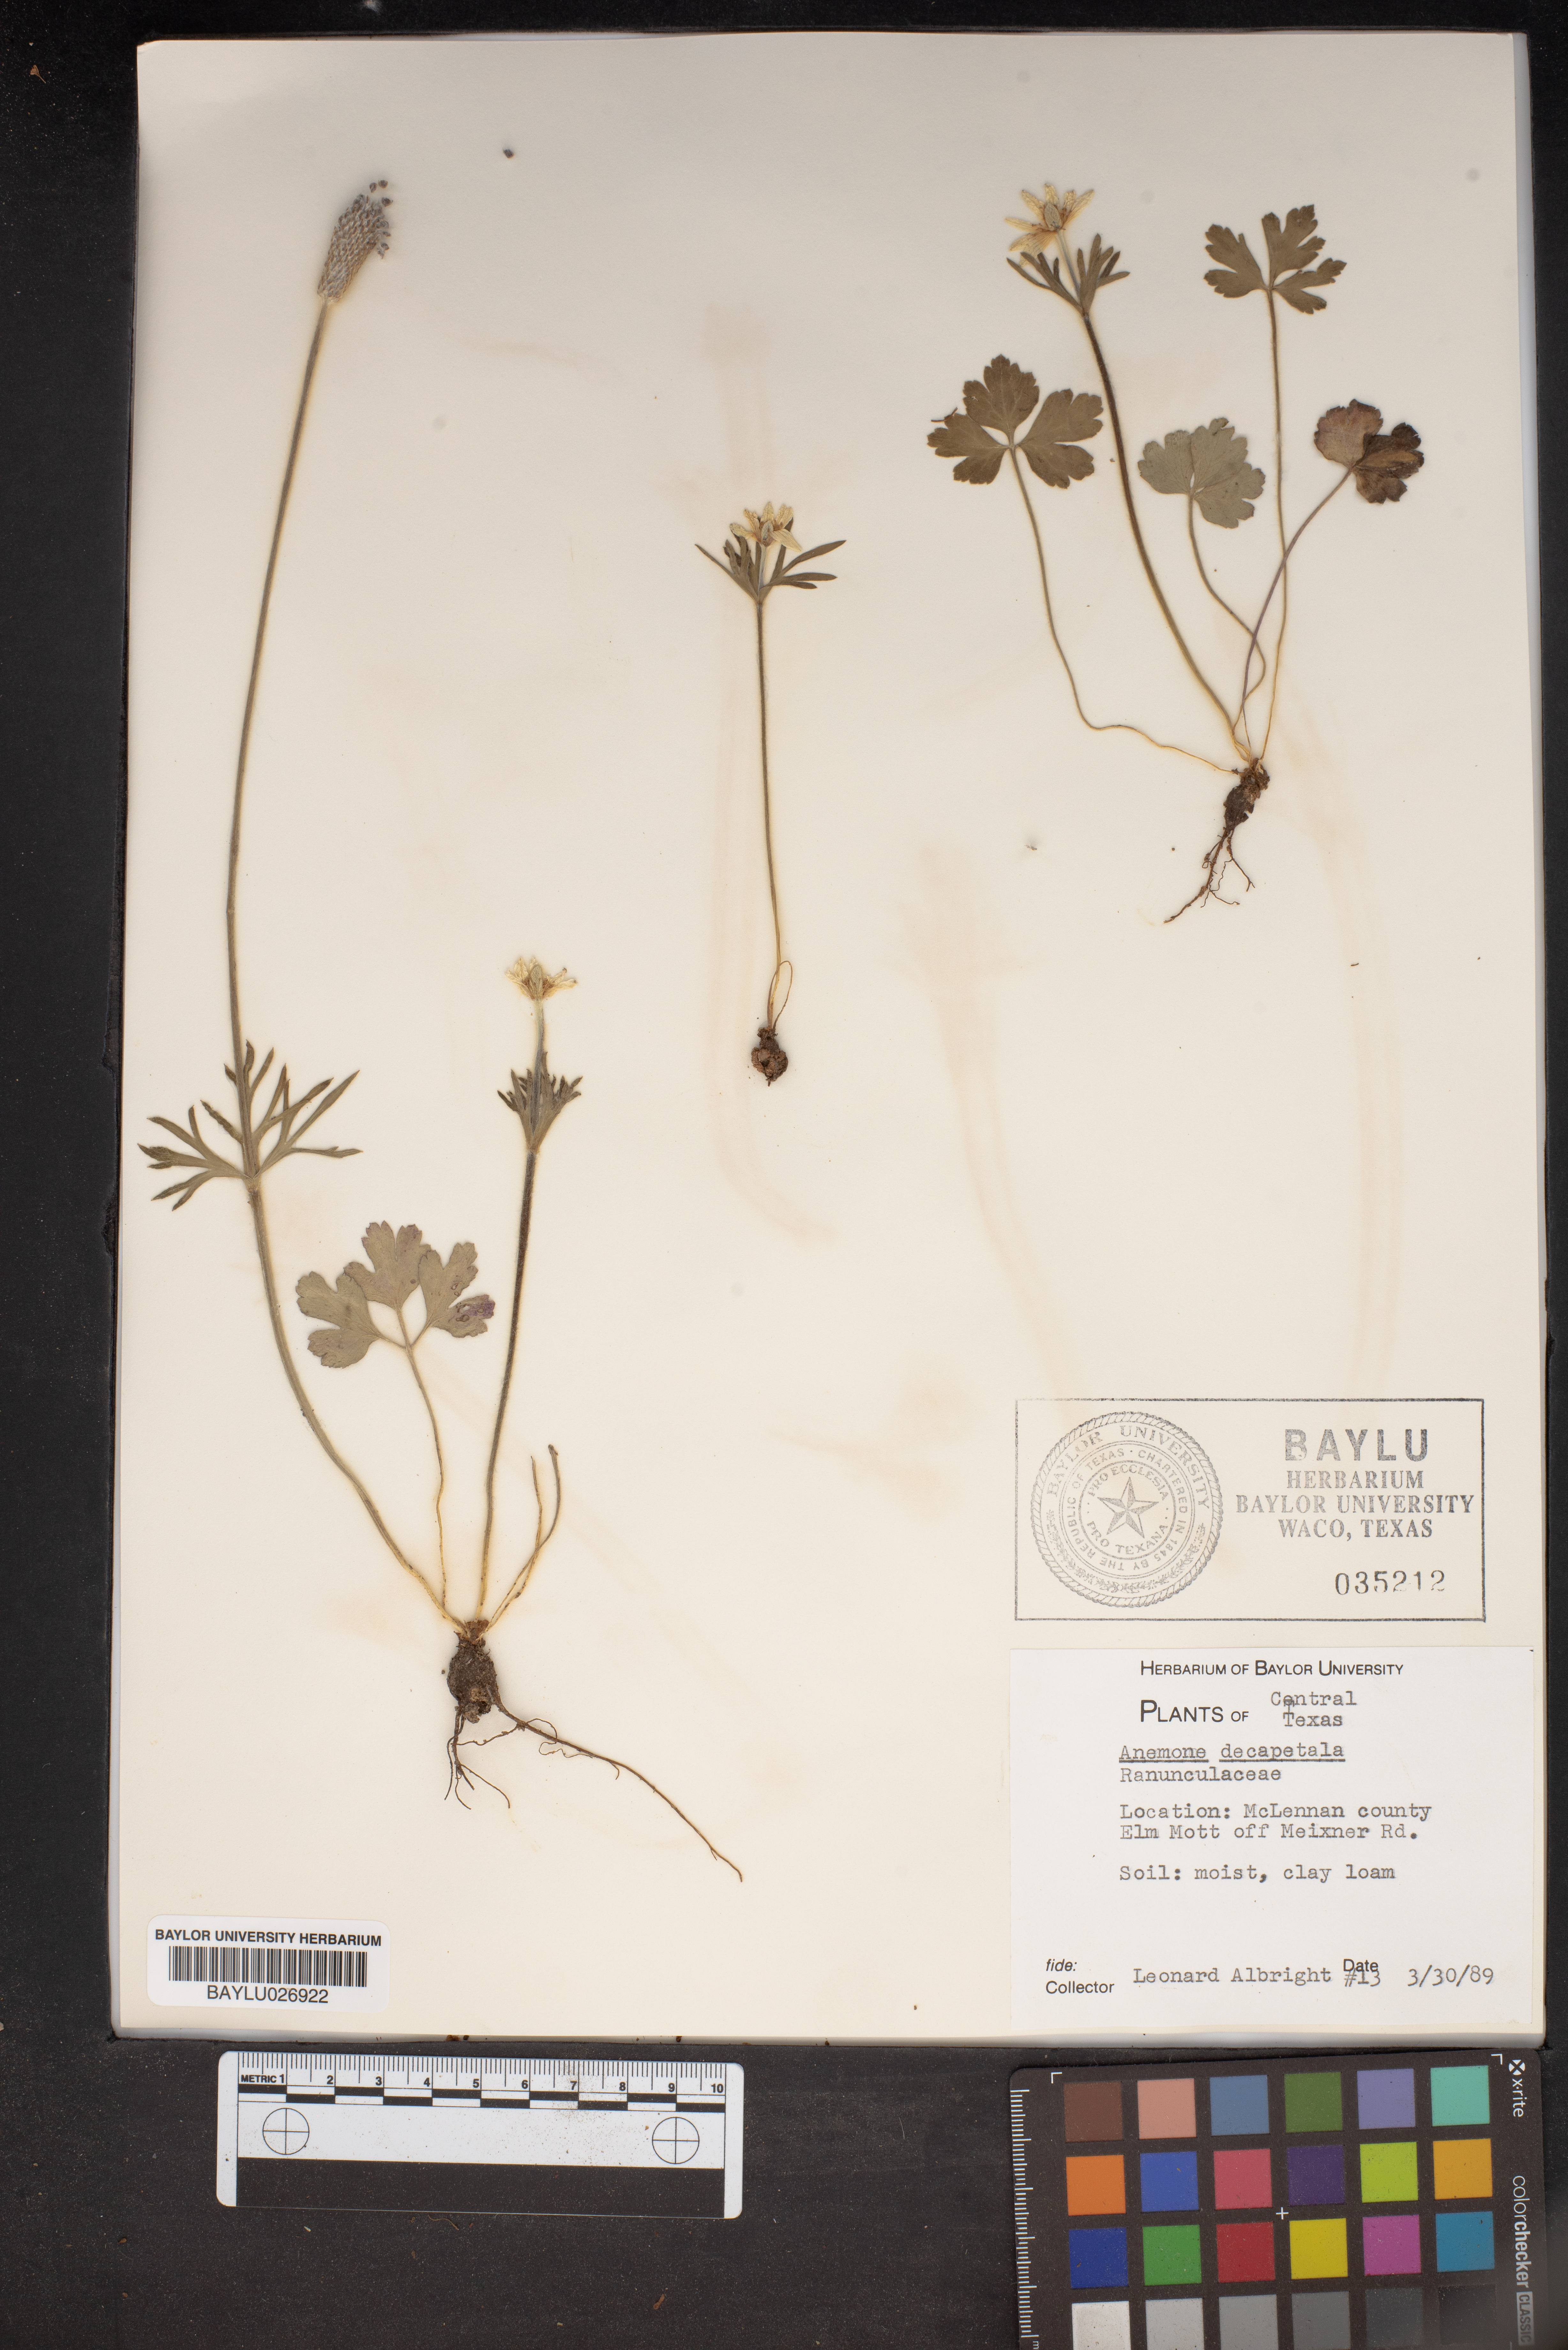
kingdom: Plantae
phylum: Tracheophyta
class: Magnoliopsida
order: Ranunculales
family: Ranunculaceae
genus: Anemone
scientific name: Anemone decapetala
